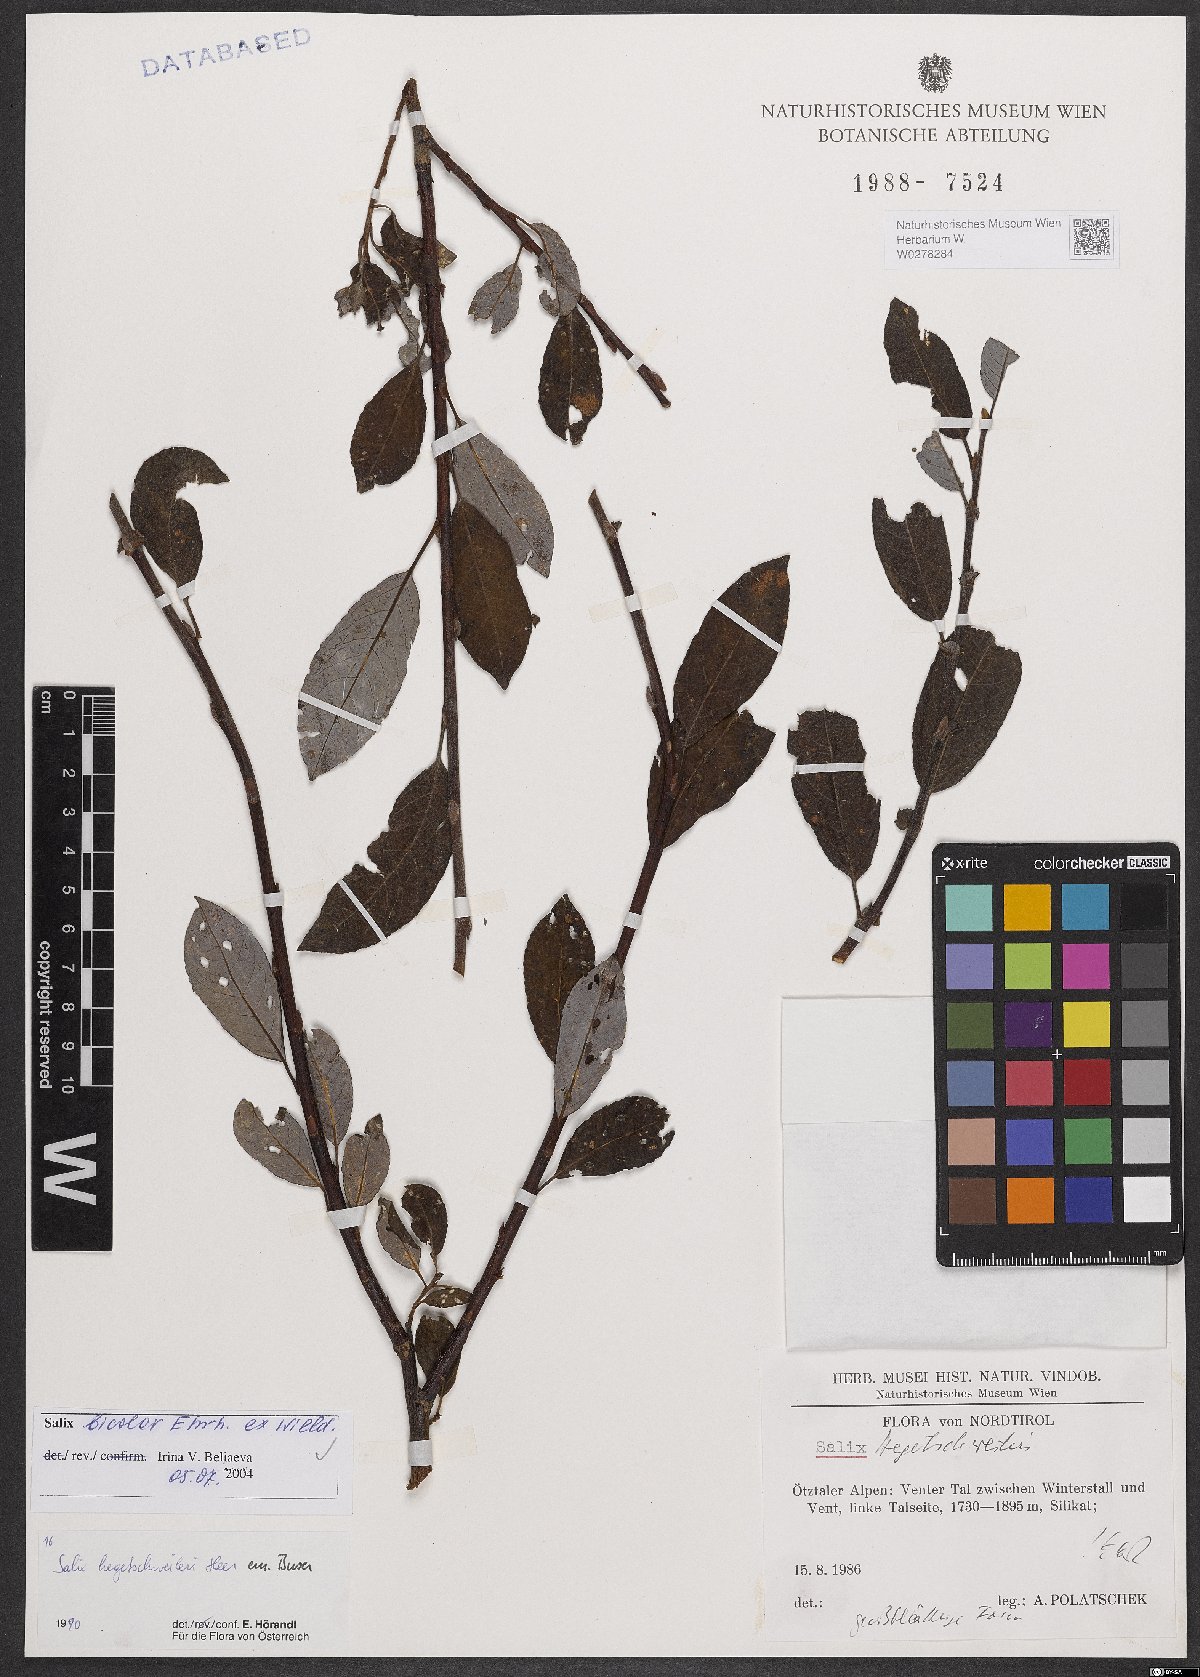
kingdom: Plantae
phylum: Tracheophyta
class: Magnoliopsida
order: Malpighiales
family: Salicaceae
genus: Salix
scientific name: Salix bicolor
